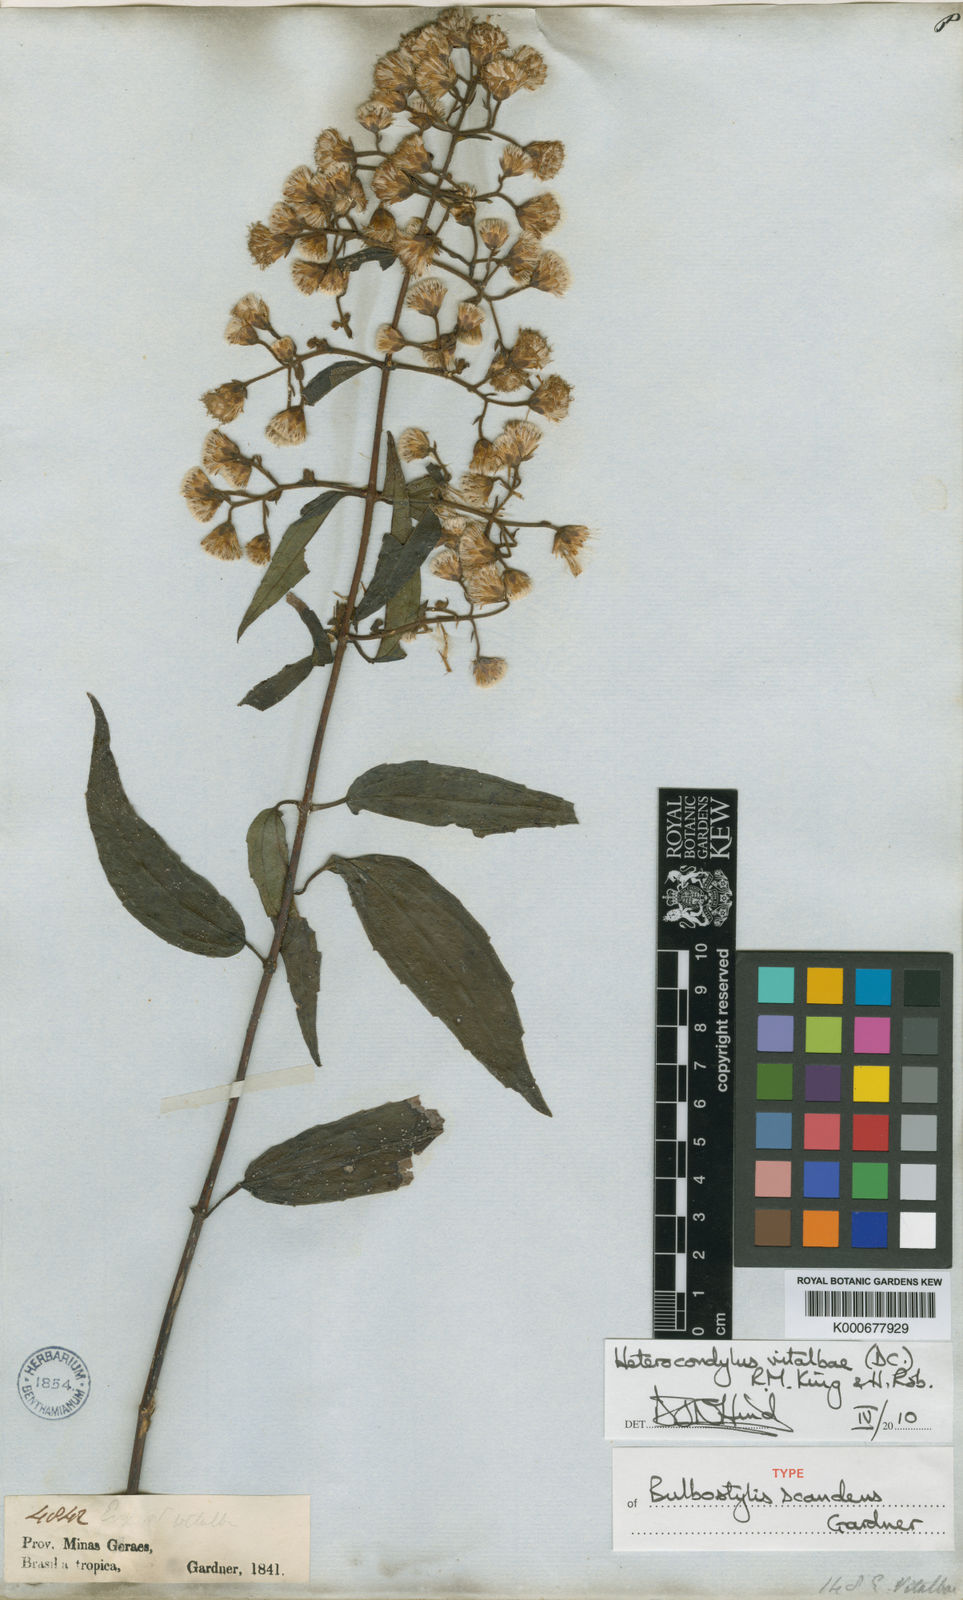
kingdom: Plantae
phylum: Tracheophyta
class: Magnoliopsida
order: Asterales
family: Asteraceae
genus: Heterocondylus
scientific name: Heterocondylus vitalbae
